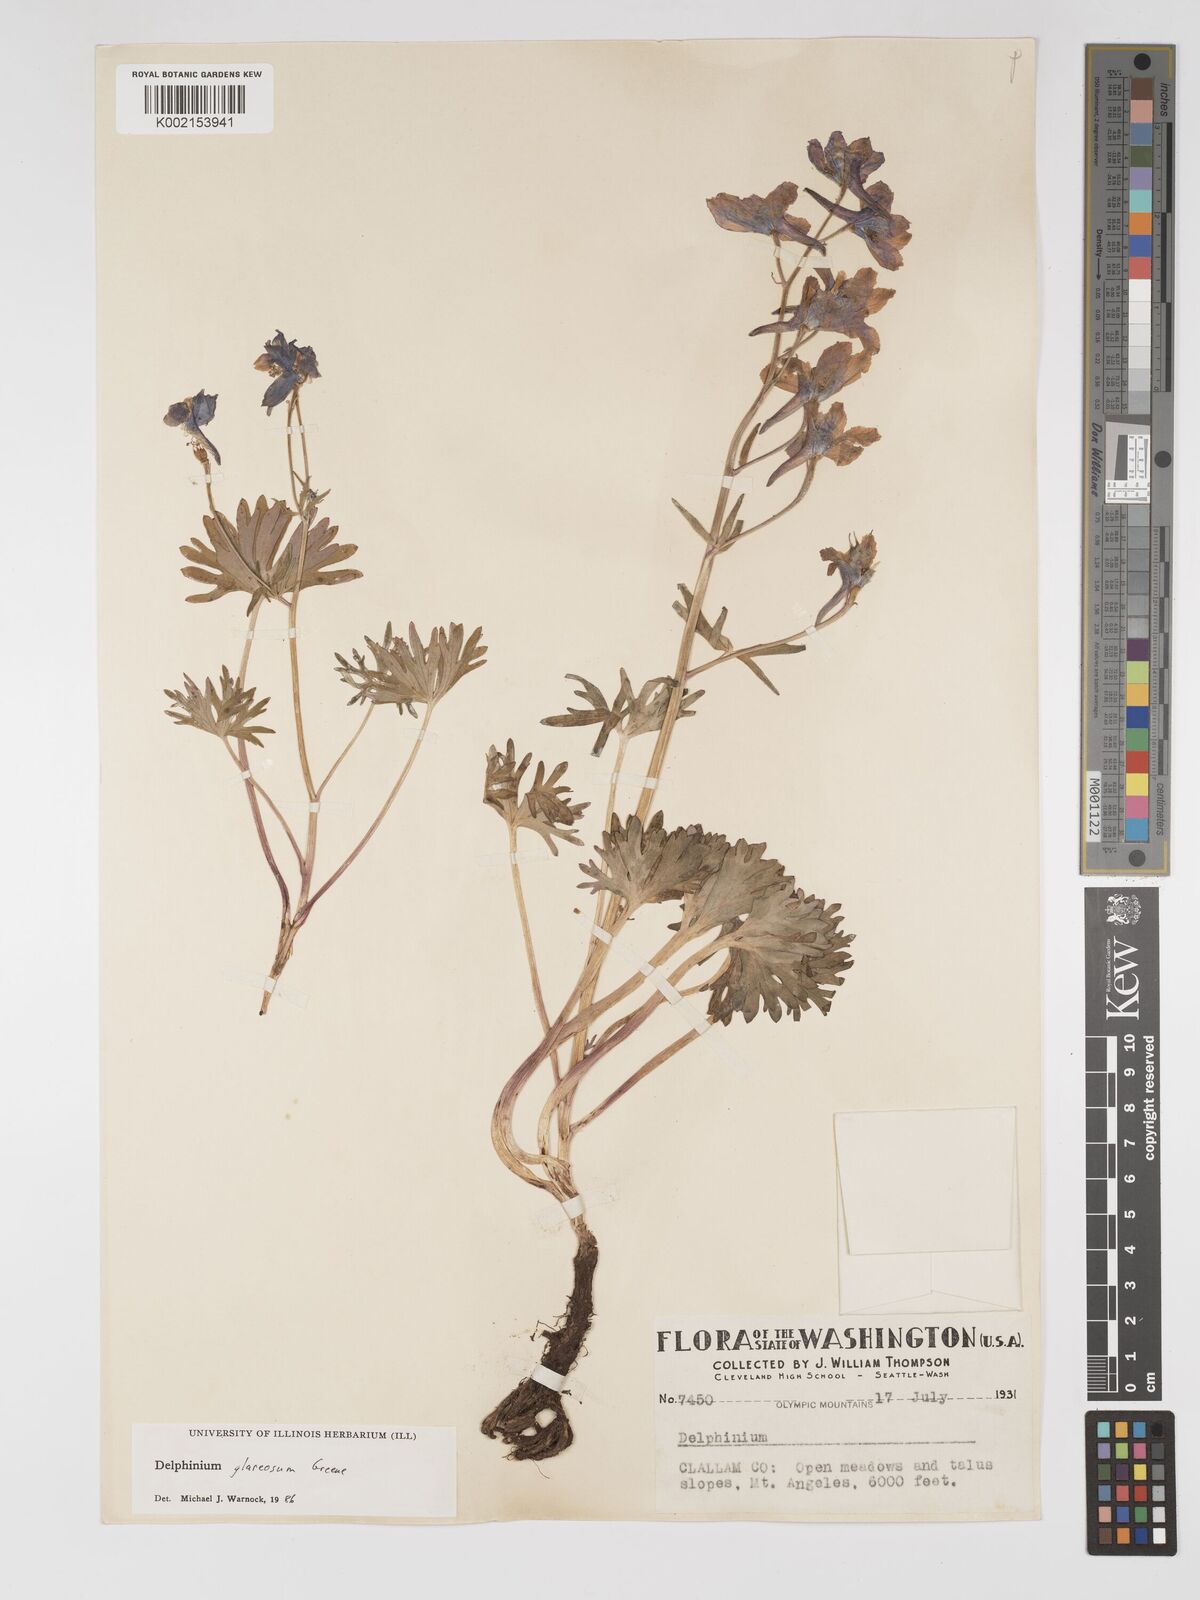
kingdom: Plantae
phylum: Tracheophyta
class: Magnoliopsida
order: Ranunculales
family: Ranunculaceae
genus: Delphinium
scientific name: Delphinium glareosum
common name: Olympic mountain larkspur
